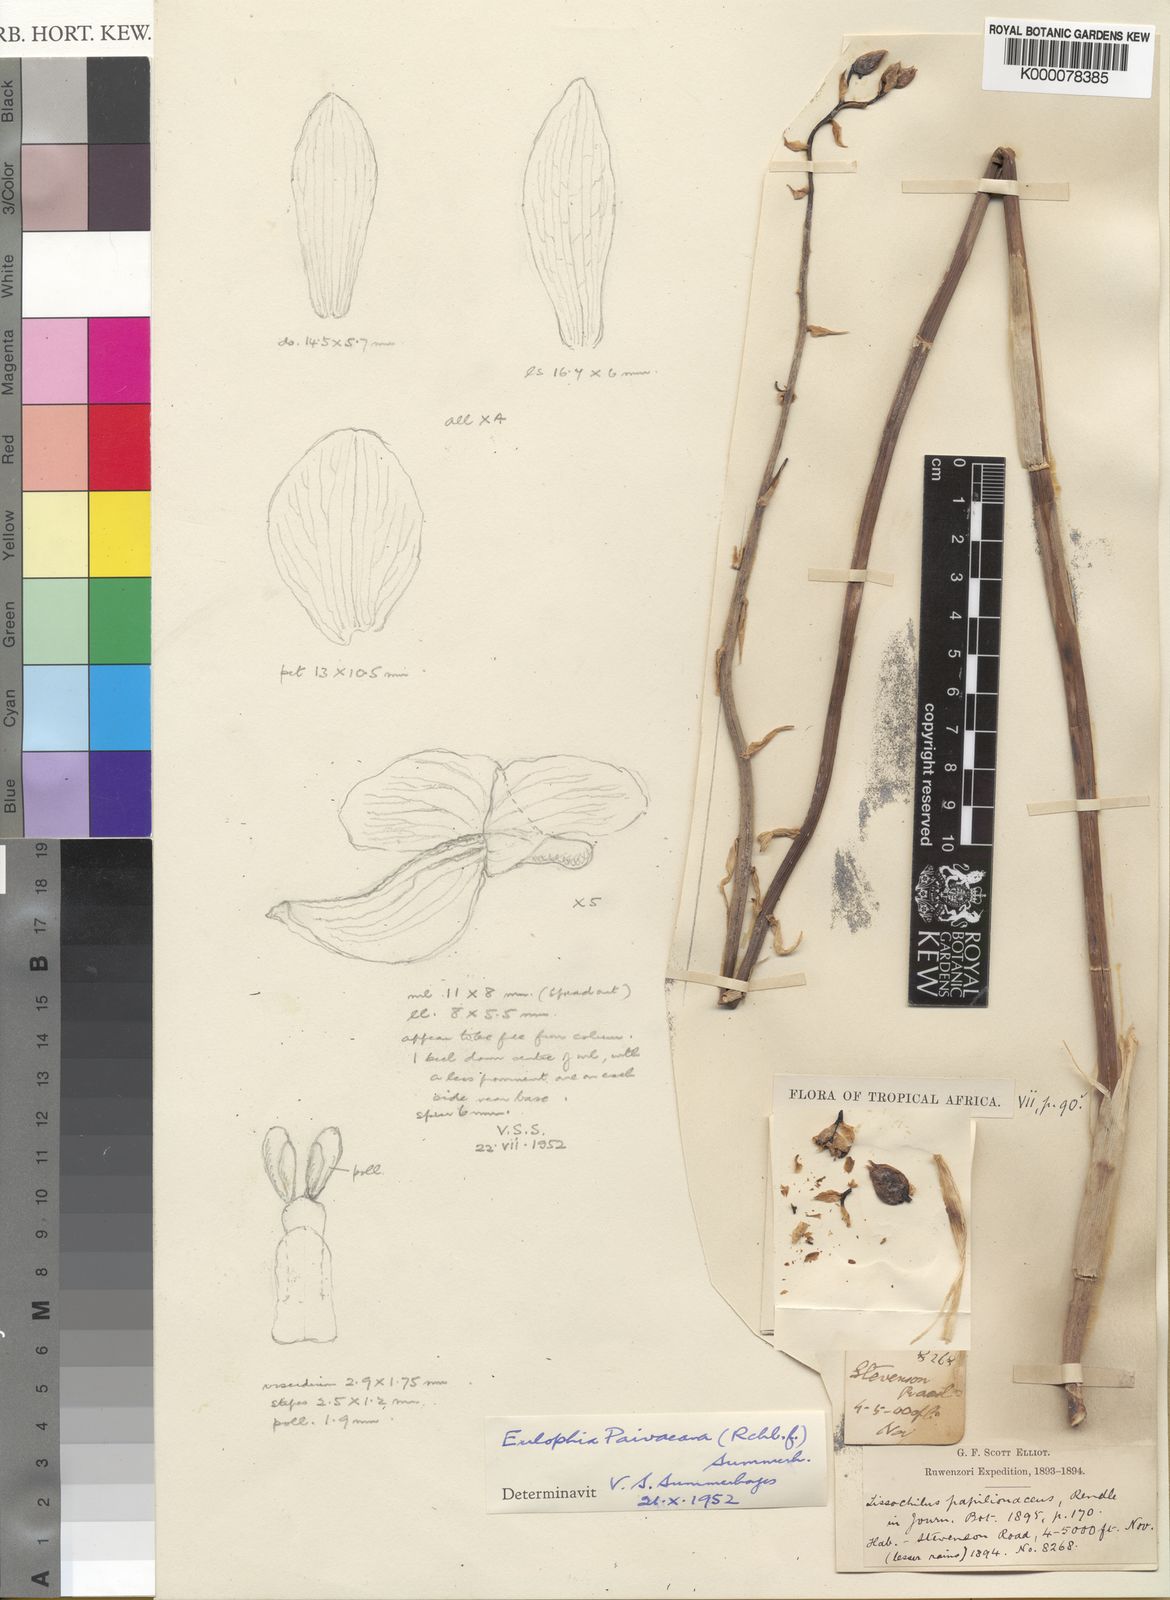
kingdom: Plantae
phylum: Tracheophyta
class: Liliopsida
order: Asparagales
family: Orchidaceae
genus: Eulophia
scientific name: Eulophia streptopetala
